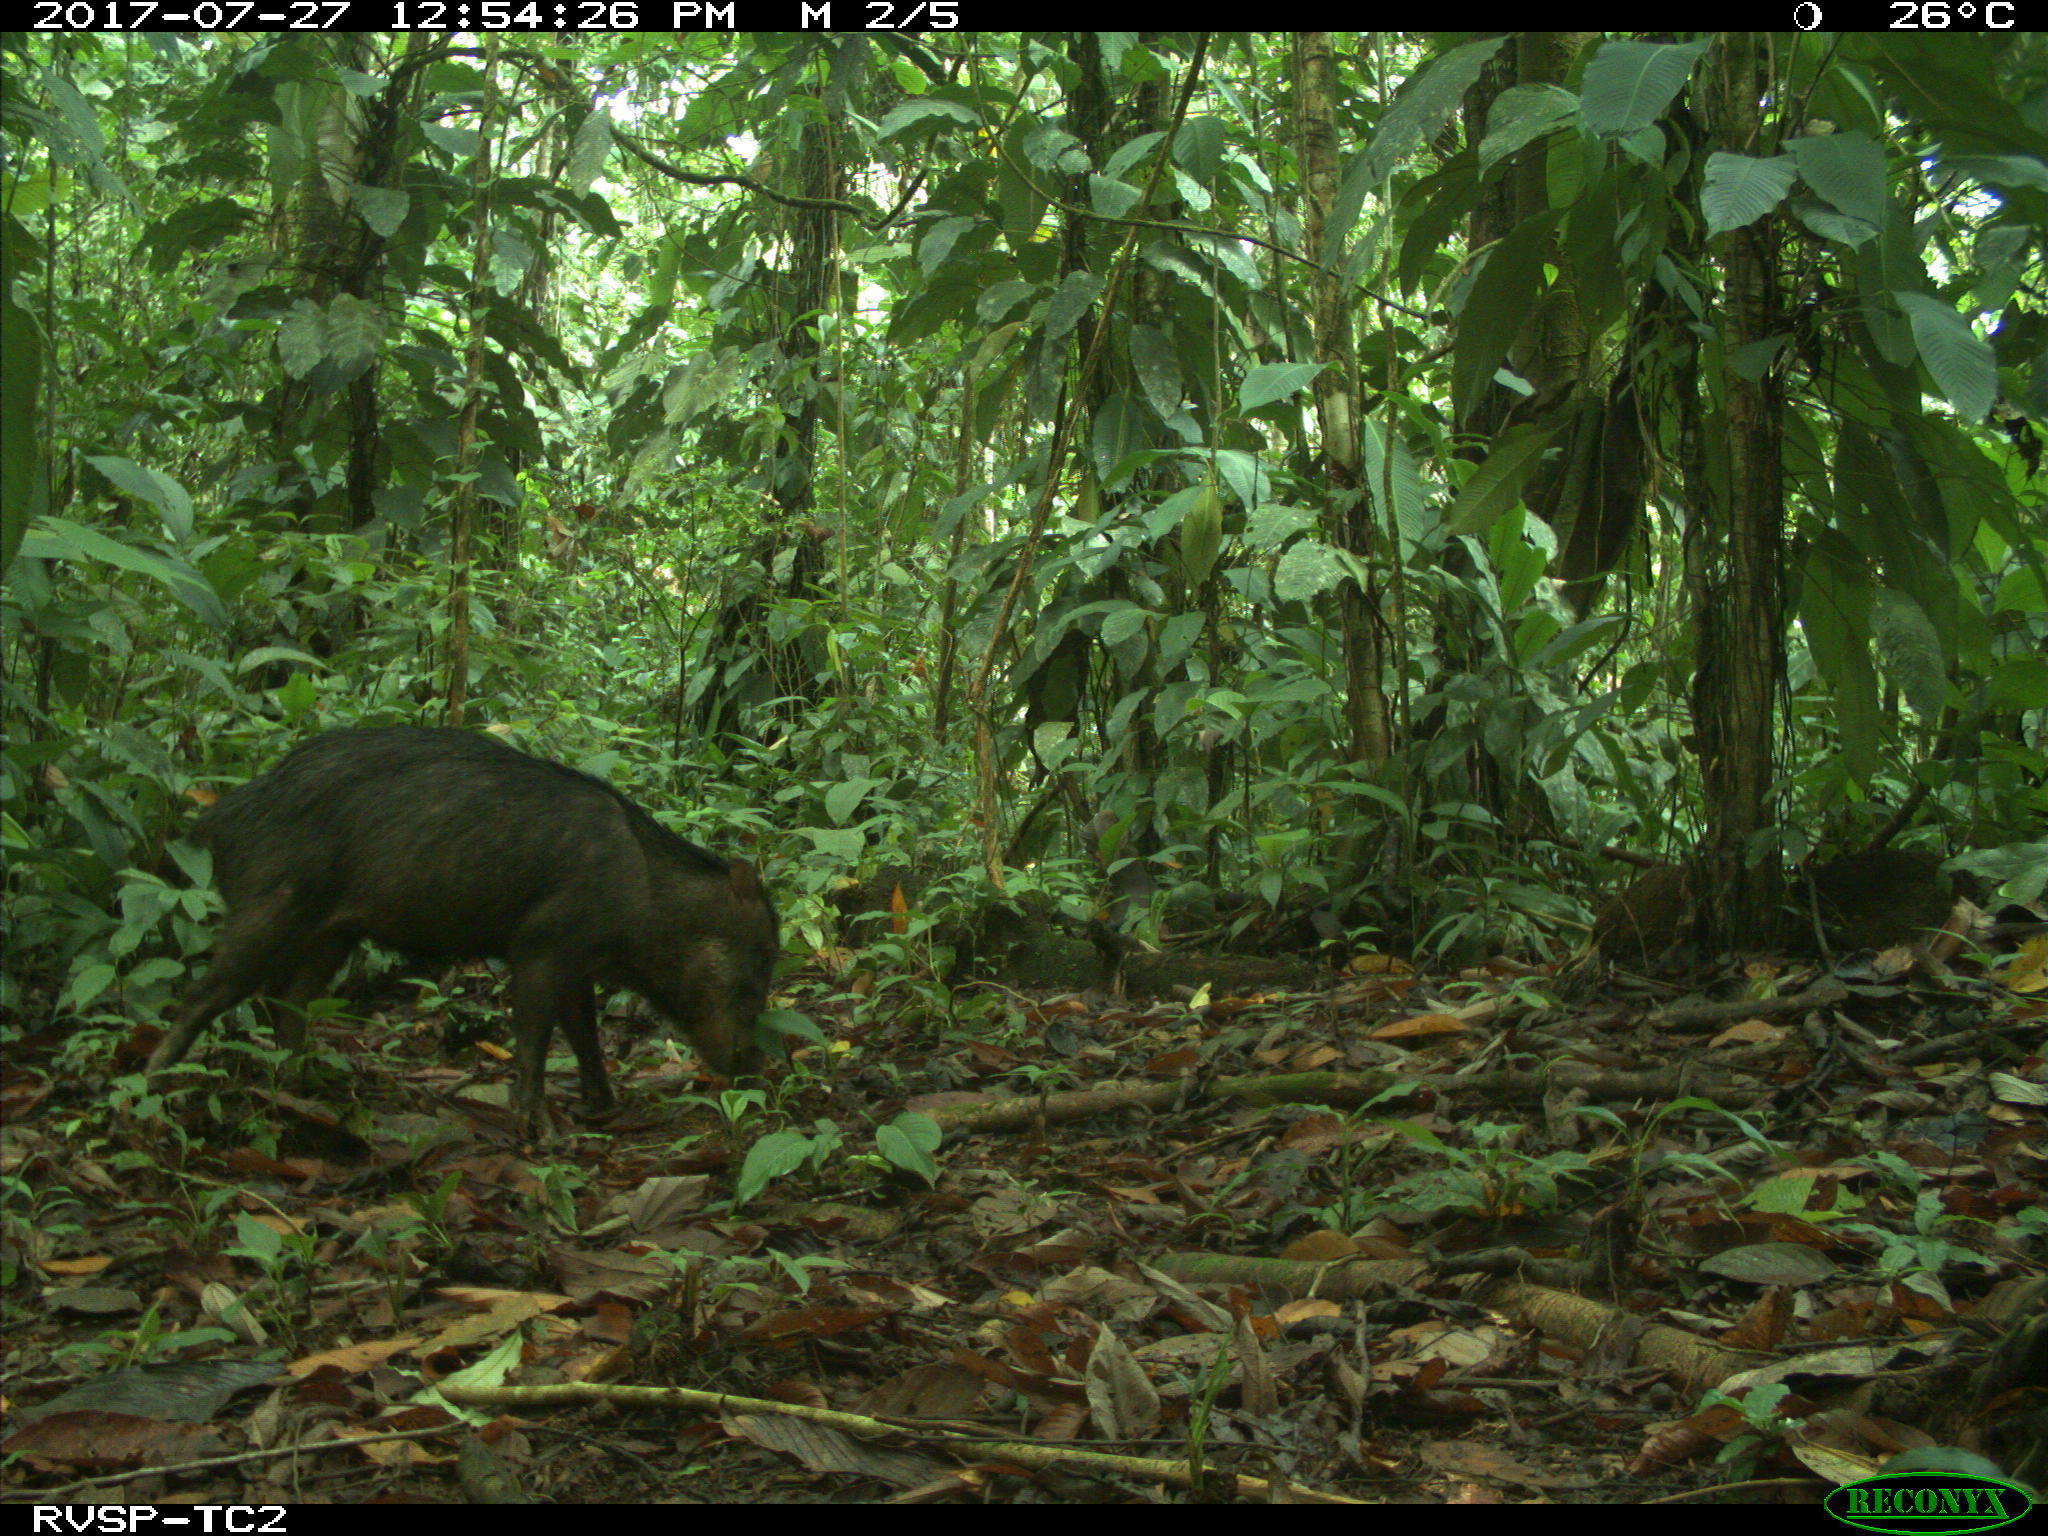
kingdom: Animalia
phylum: Chordata
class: Mammalia
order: Artiodactyla
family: Tayassuidae
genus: Tayassu
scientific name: Tayassu pecari
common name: White-lipped peccary
